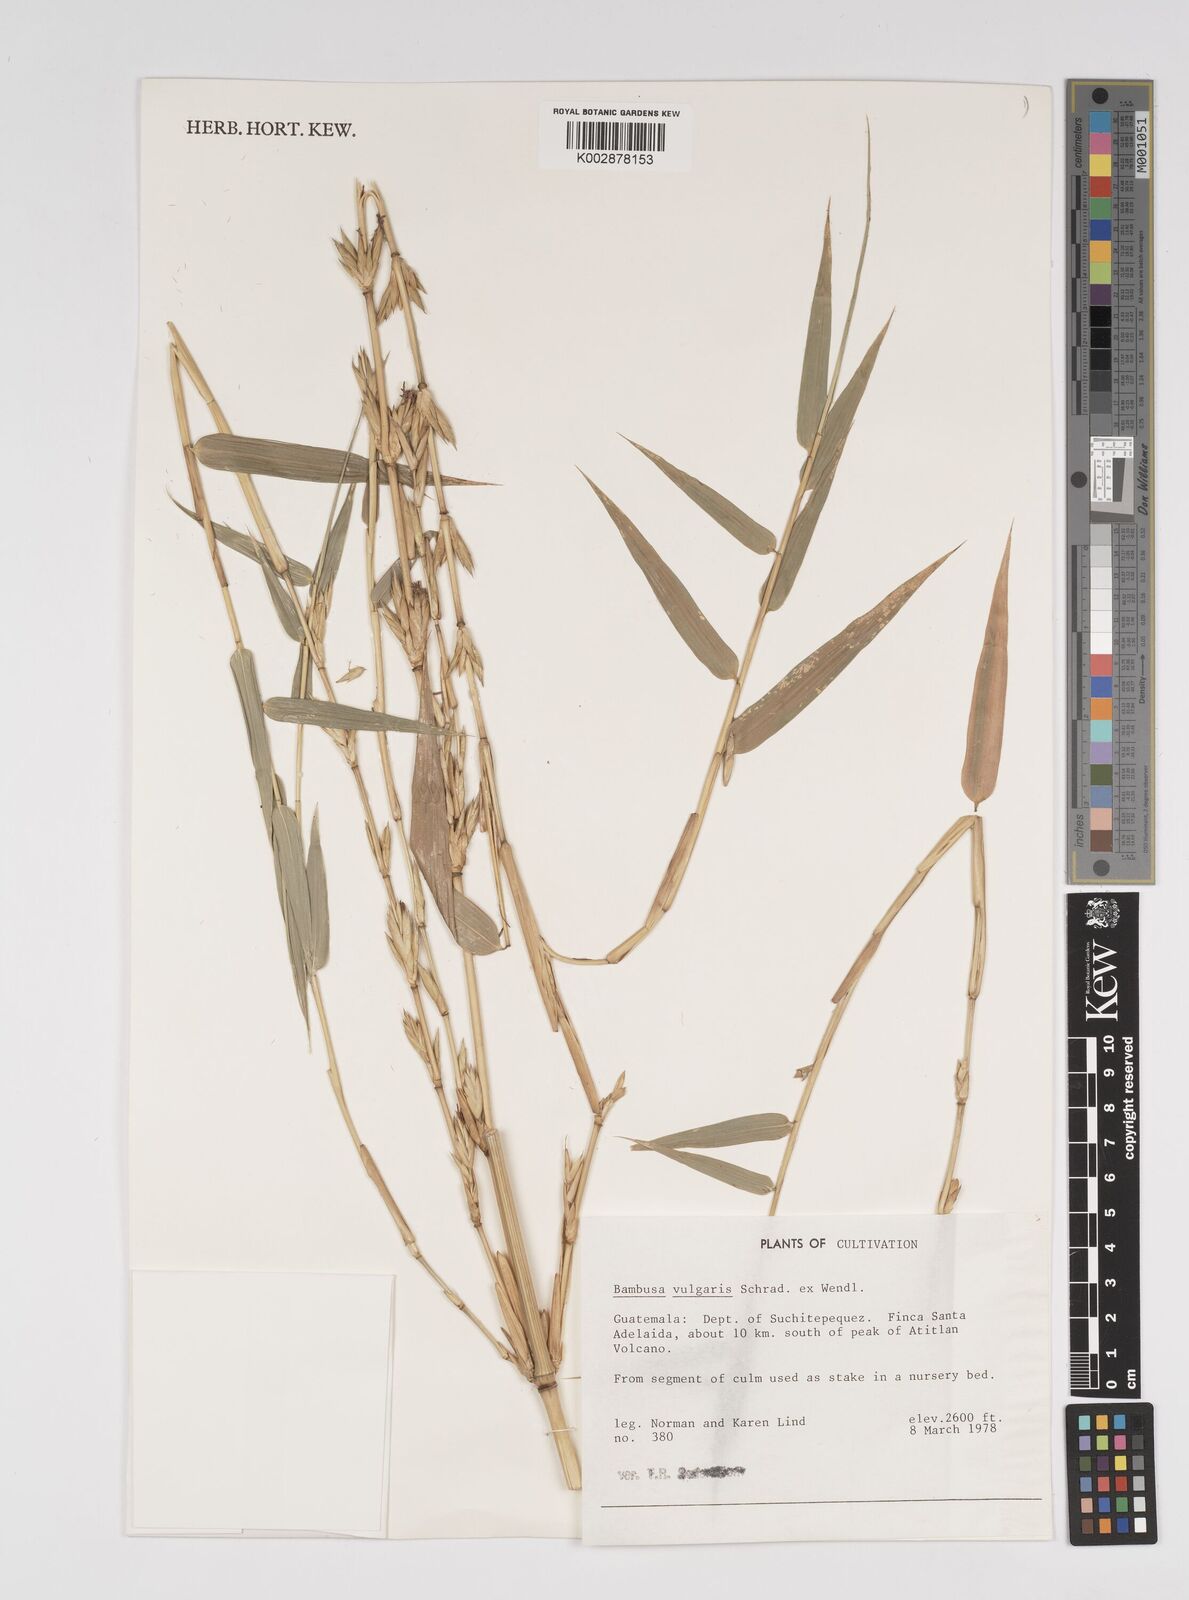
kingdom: Plantae
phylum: Tracheophyta
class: Liliopsida
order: Poales
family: Poaceae
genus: Bambusa
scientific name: Bambusa
